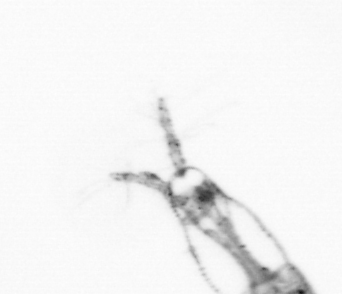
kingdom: Animalia
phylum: Arthropoda
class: Copepoda
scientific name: Copepoda
